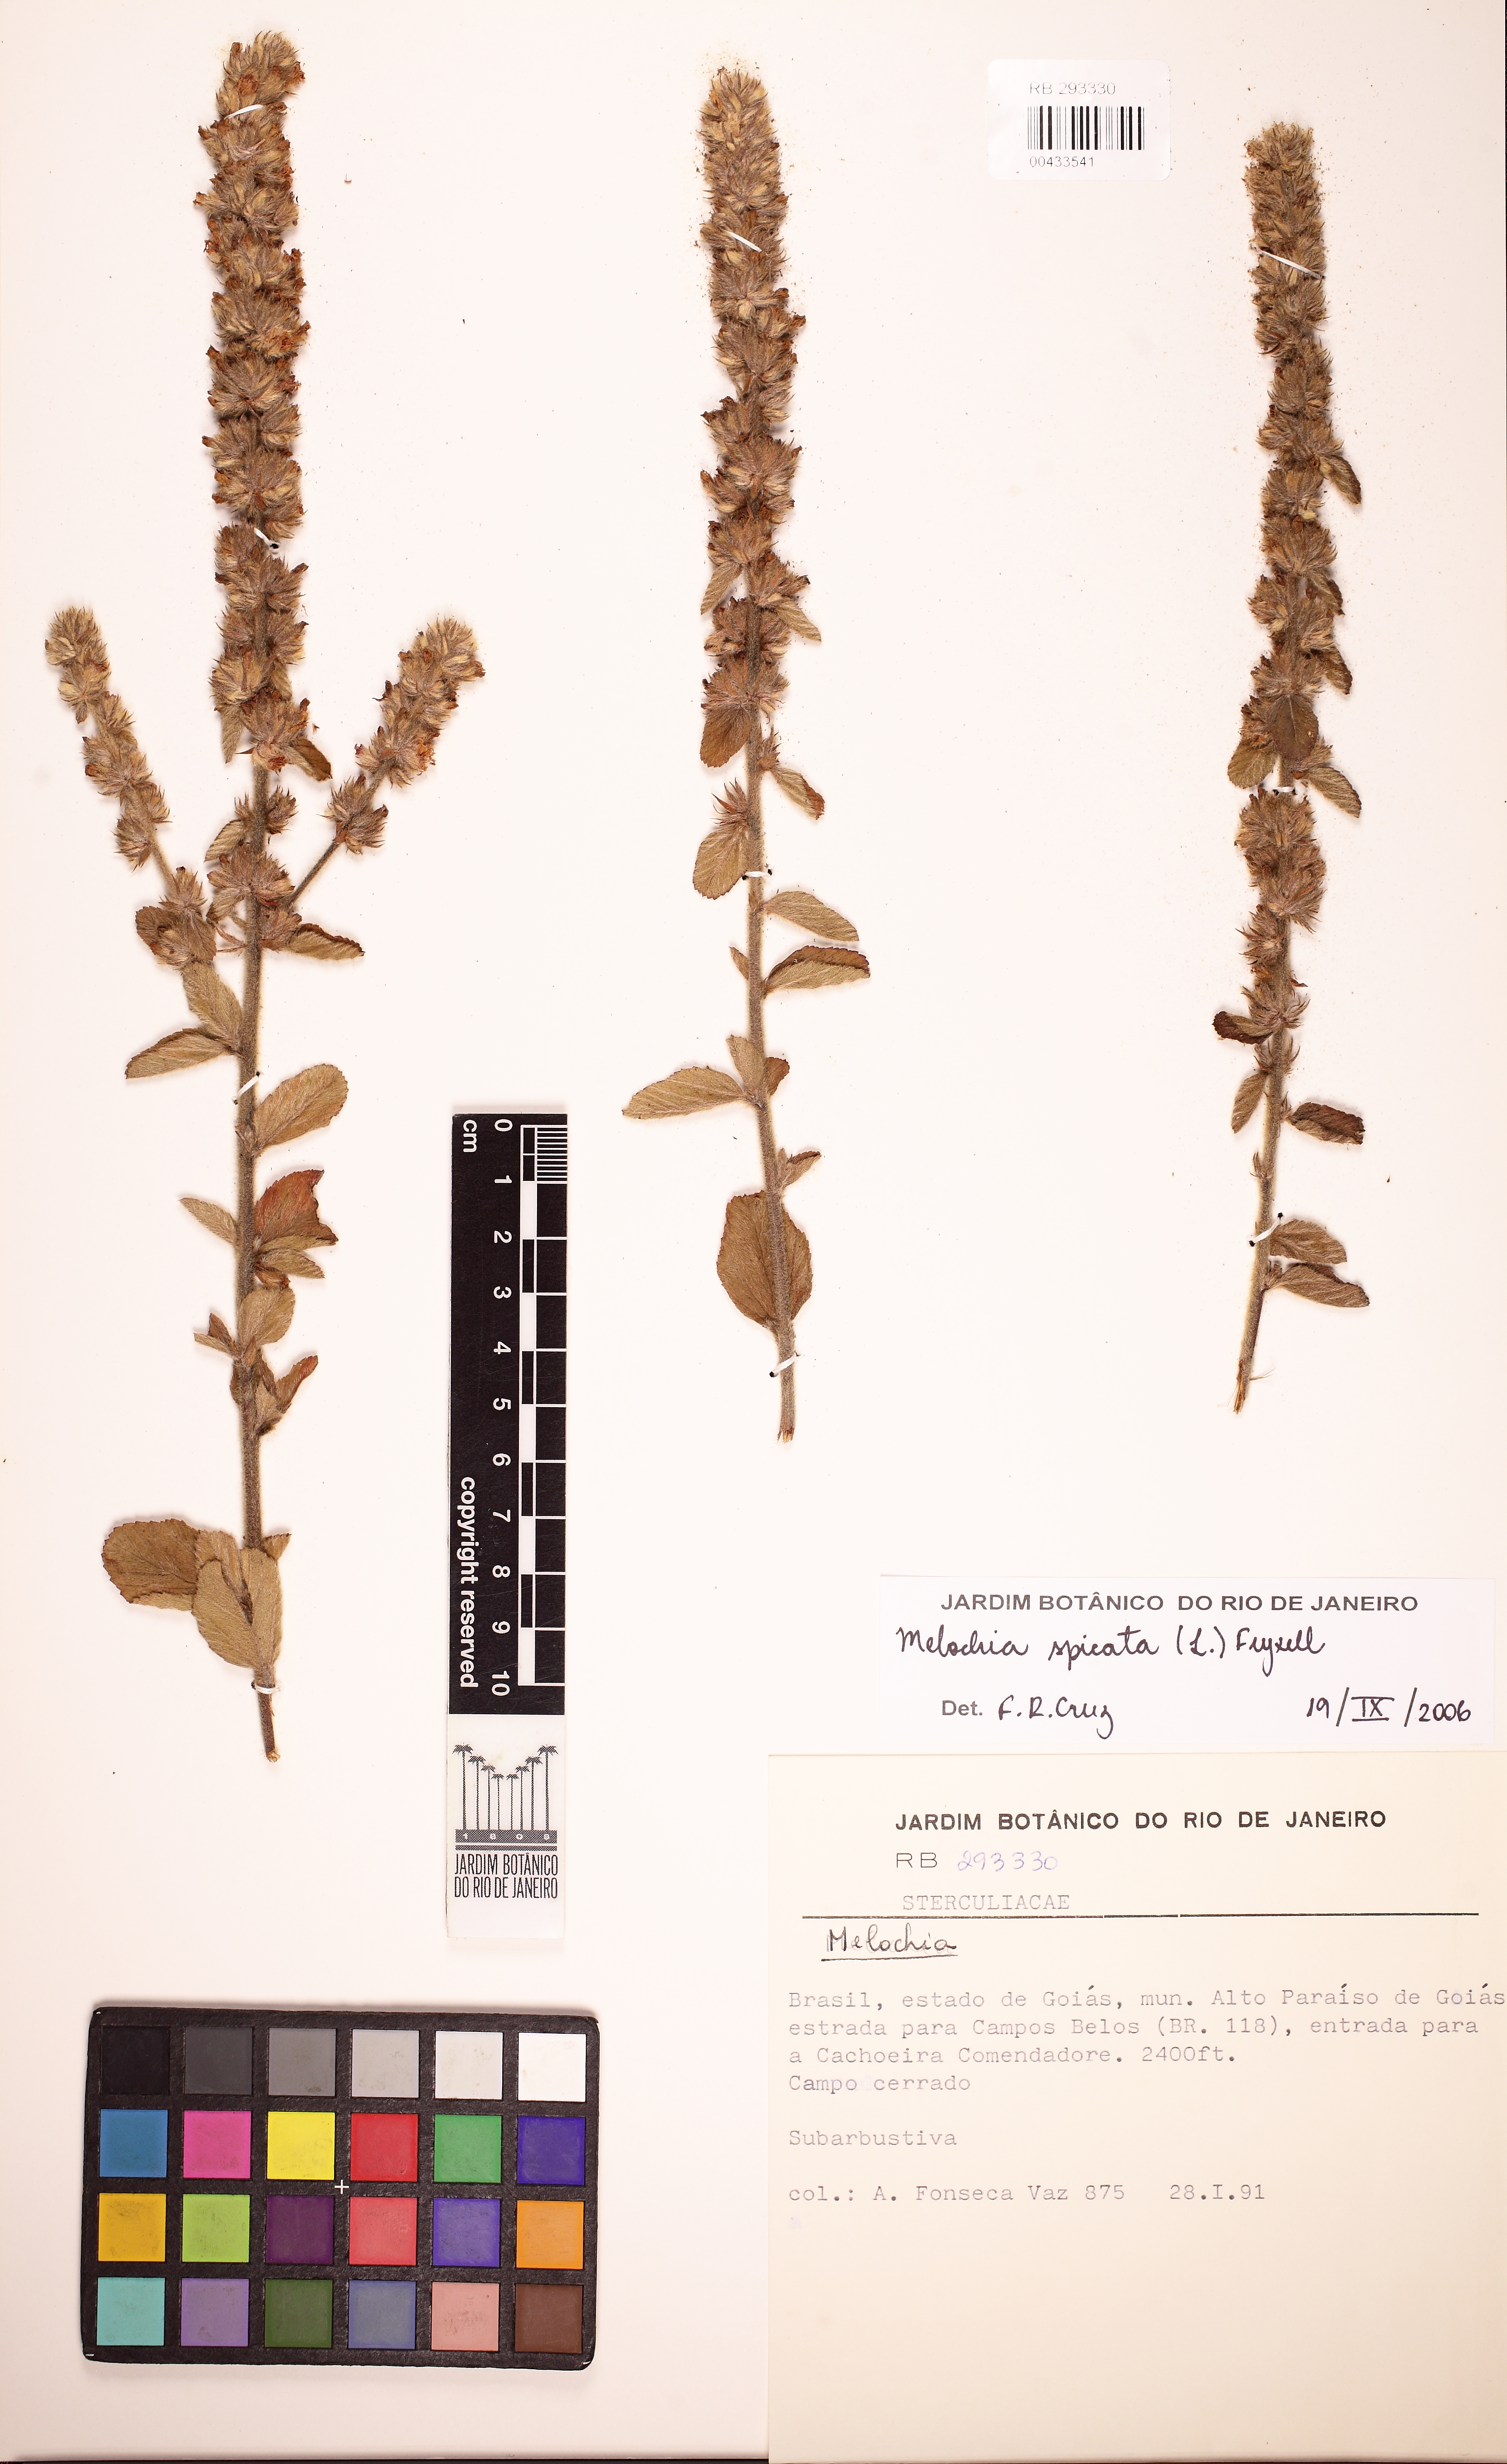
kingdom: Plantae
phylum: Tracheophyta
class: Magnoliopsida
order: Malvales
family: Malvaceae
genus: Melochia
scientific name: Melochia spicata
